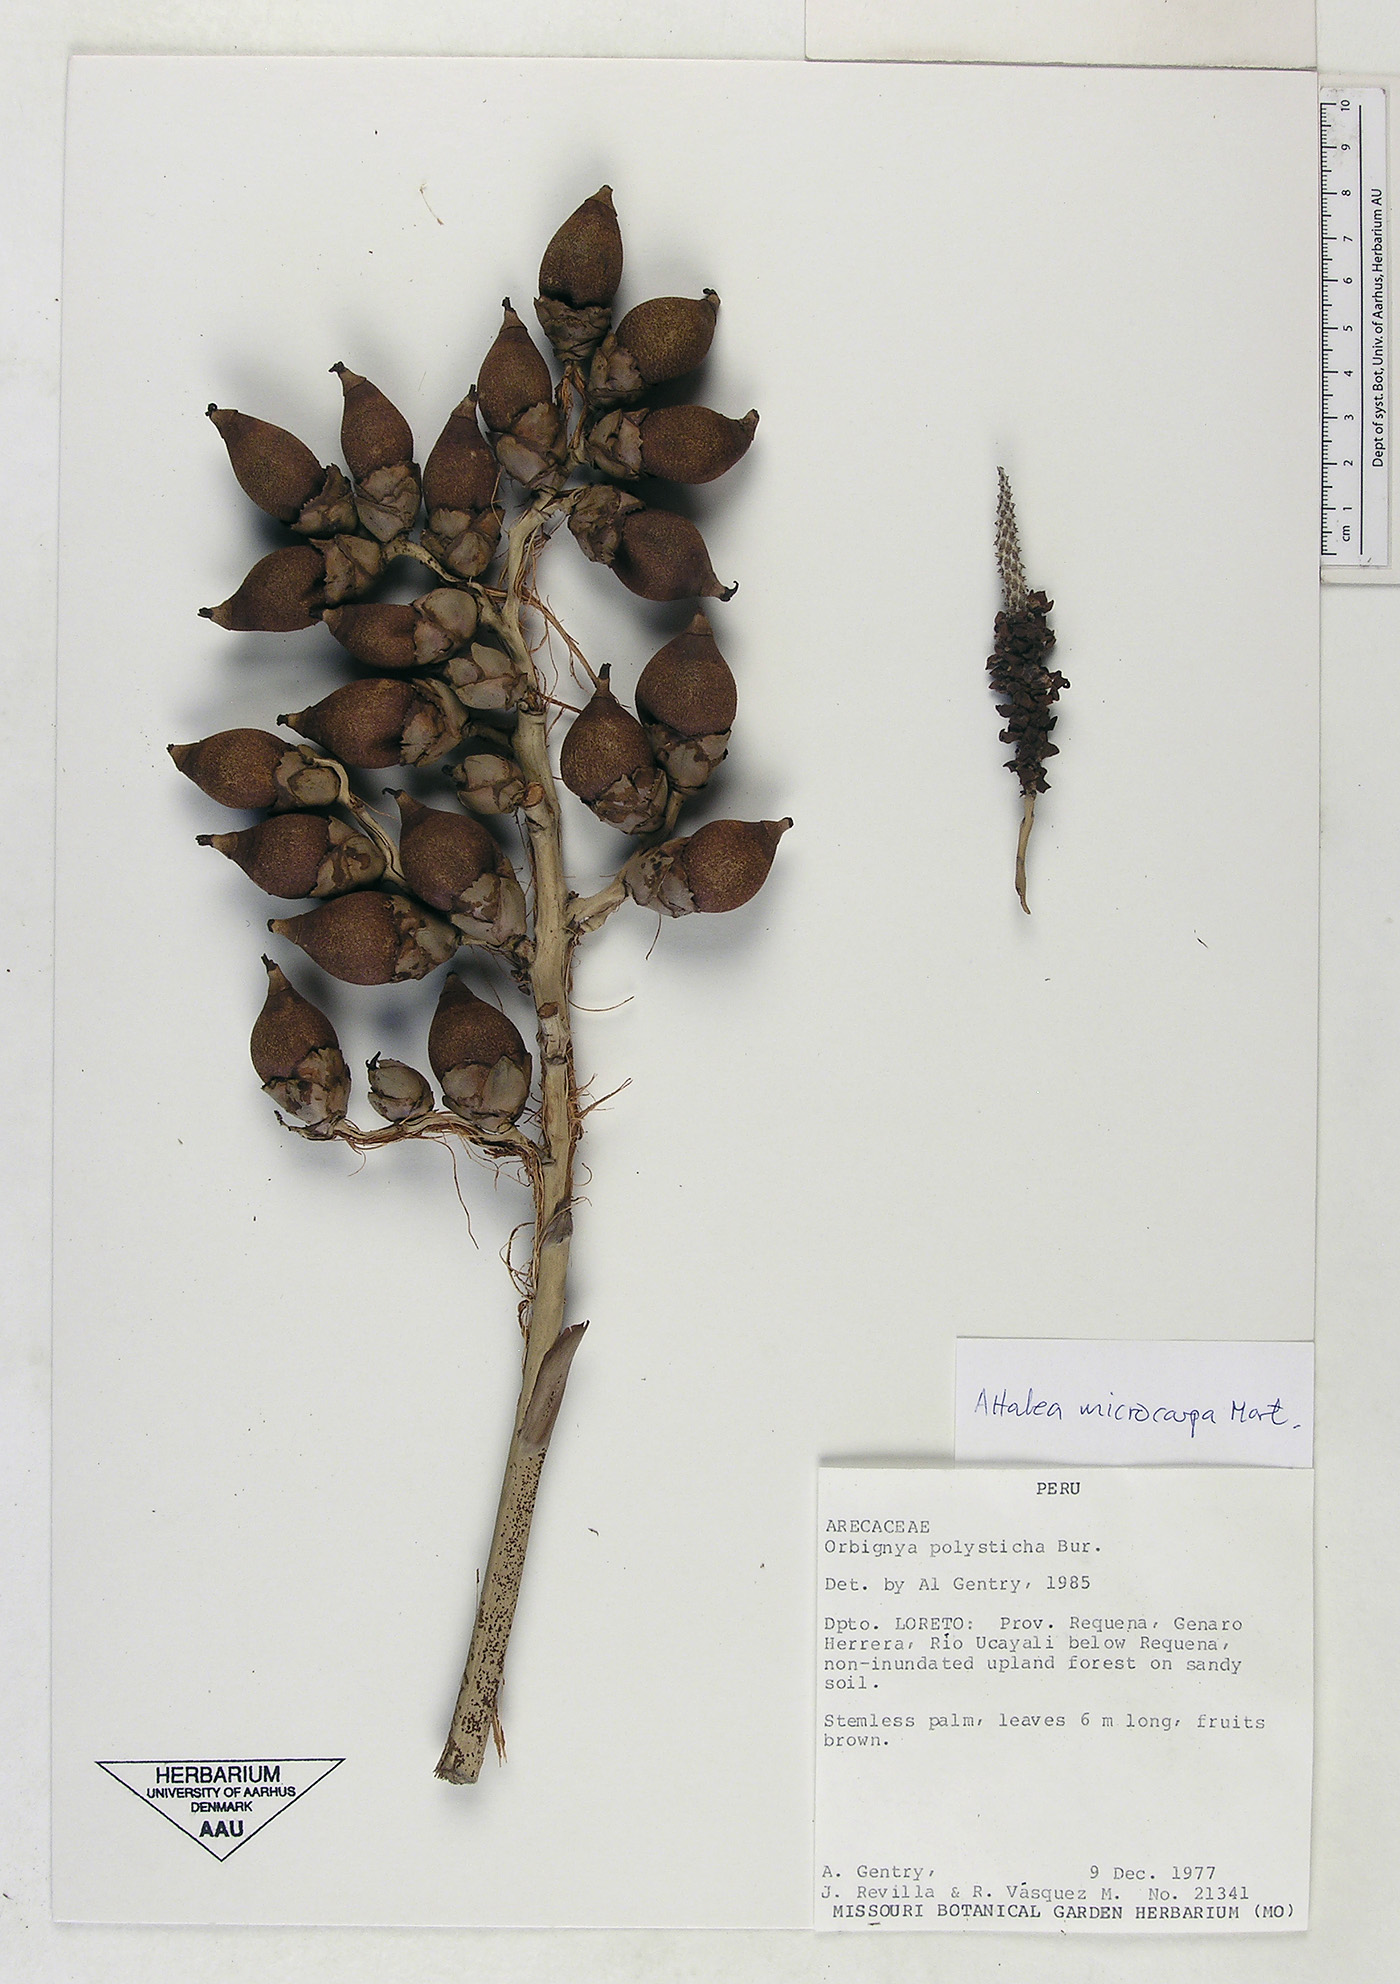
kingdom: Plantae
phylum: Tracheophyta
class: Liliopsida
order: Arecales
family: Arecaceae
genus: Attalea
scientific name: Attalea microcarpa
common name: Mountain maripa
